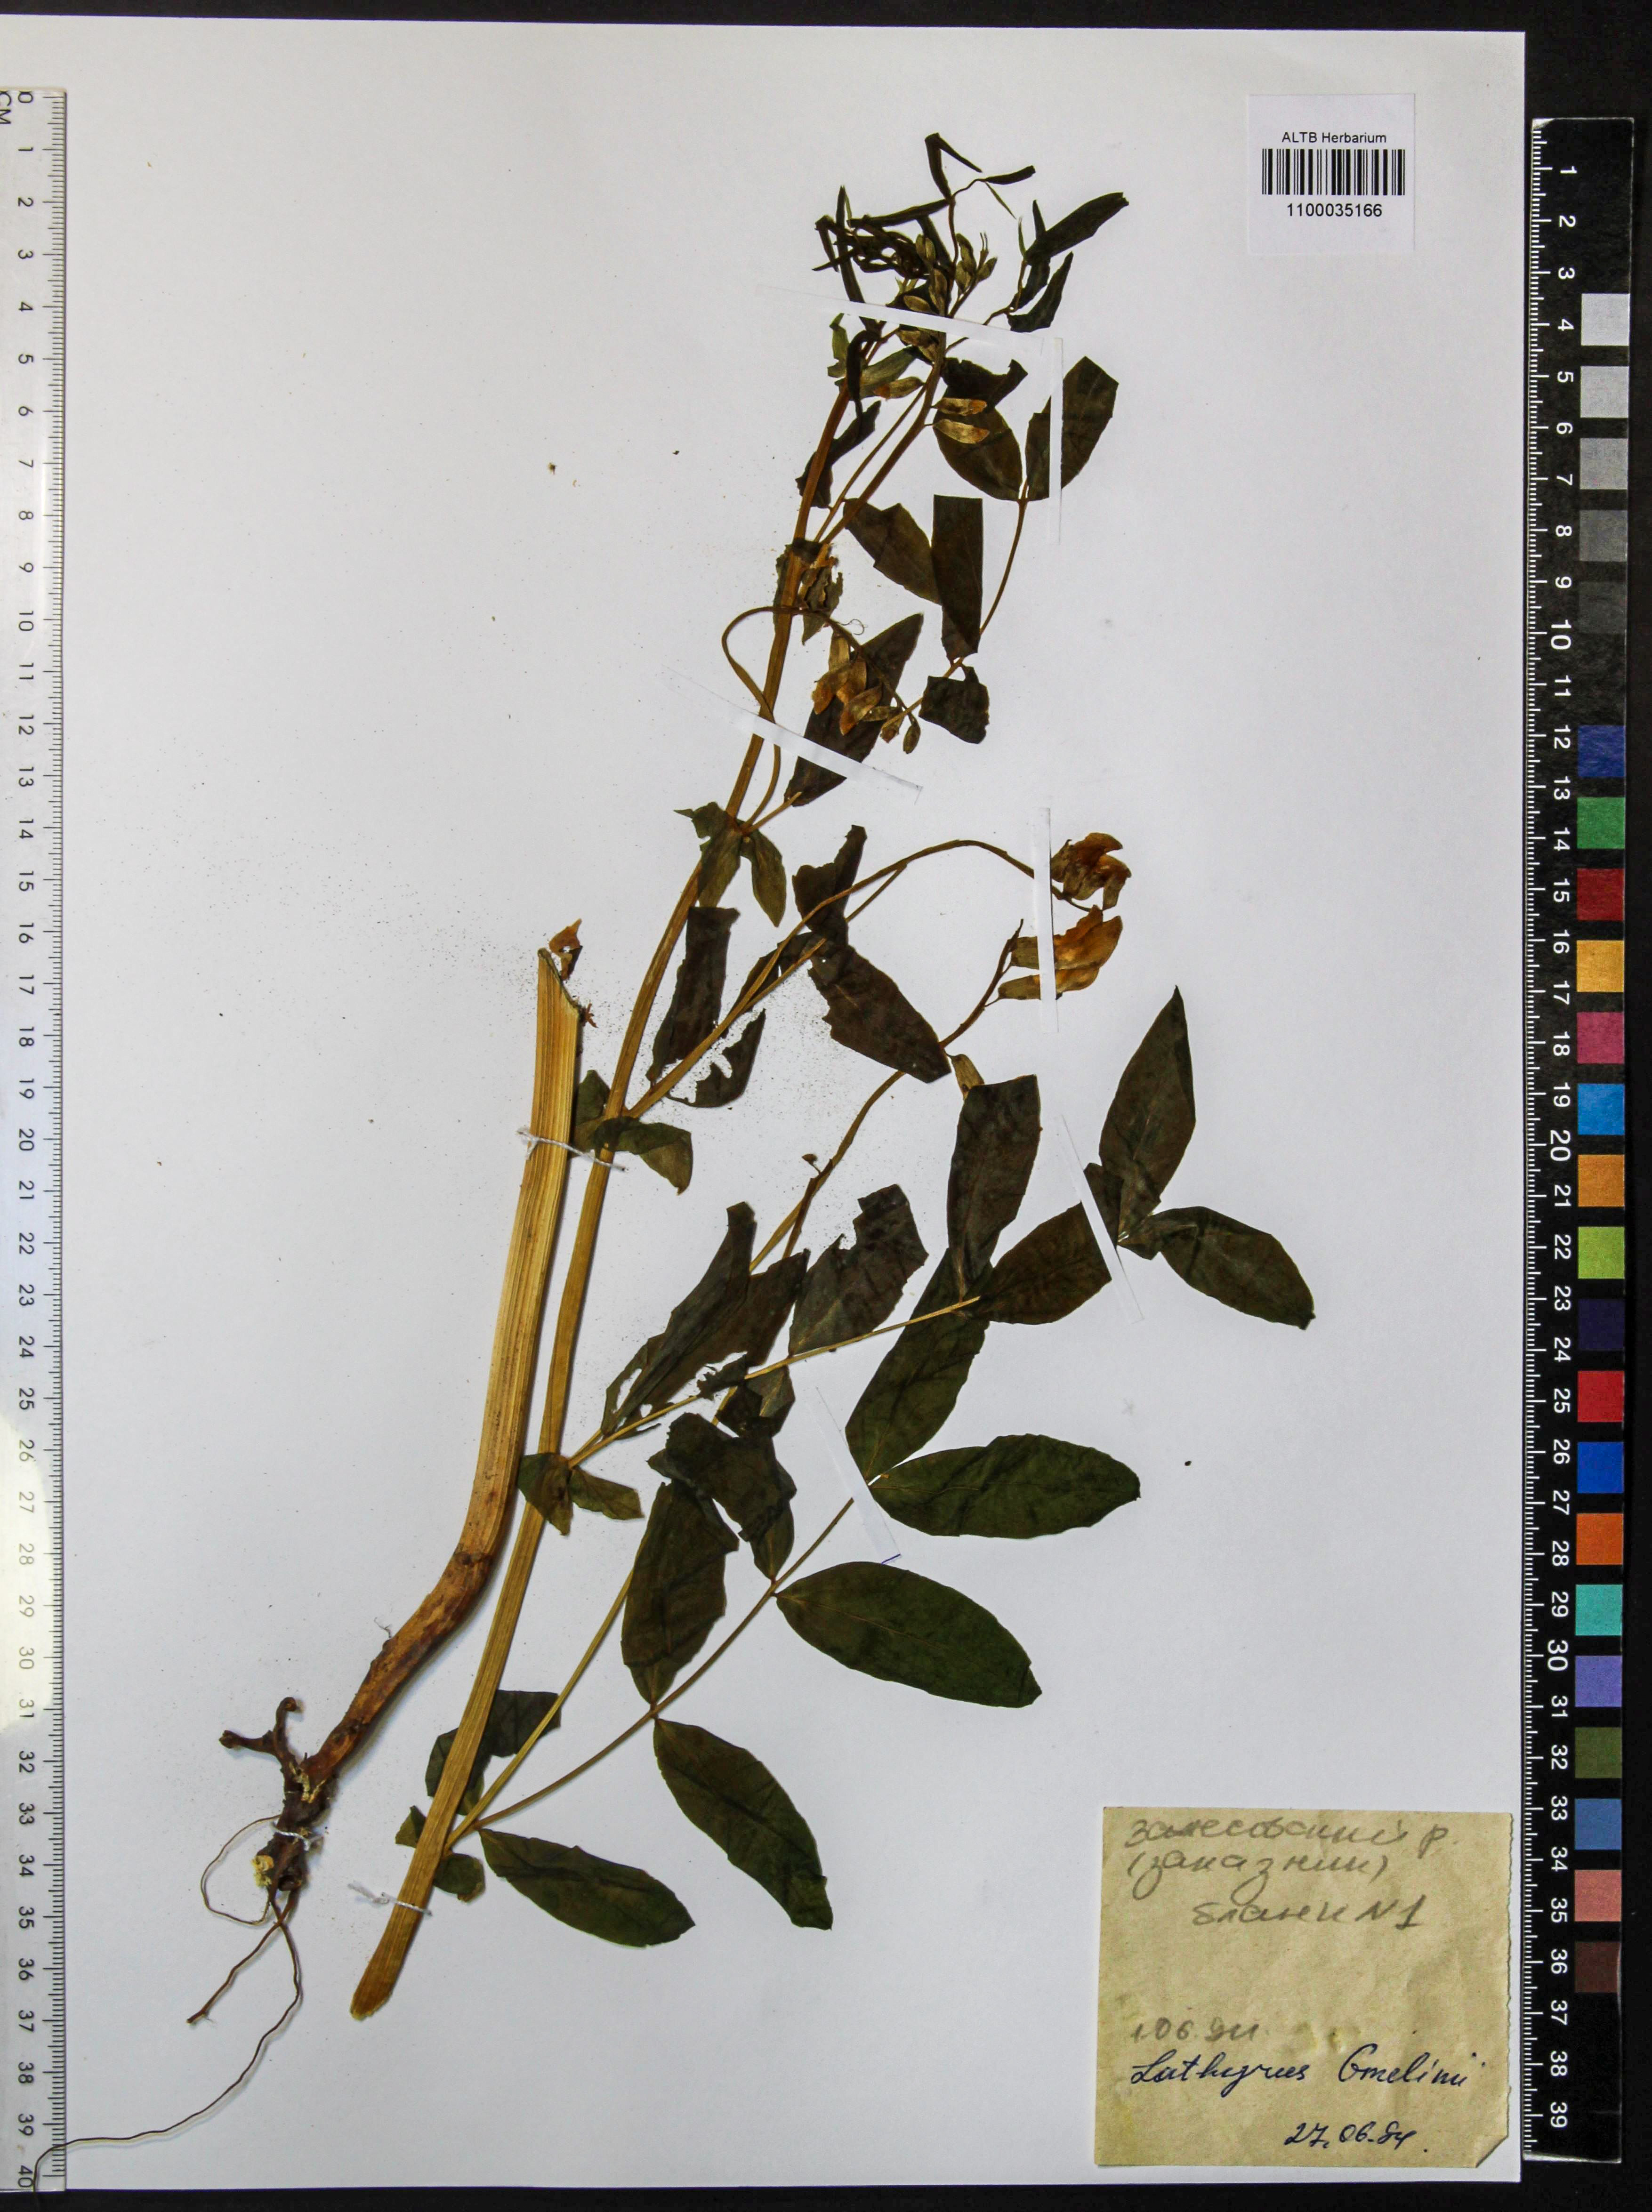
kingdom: Plantae
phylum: Tracheophyta
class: Magnoliopsida
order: Fabales
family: Fabaceae
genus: Lathyrus
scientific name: Lathyrus gmelinii
